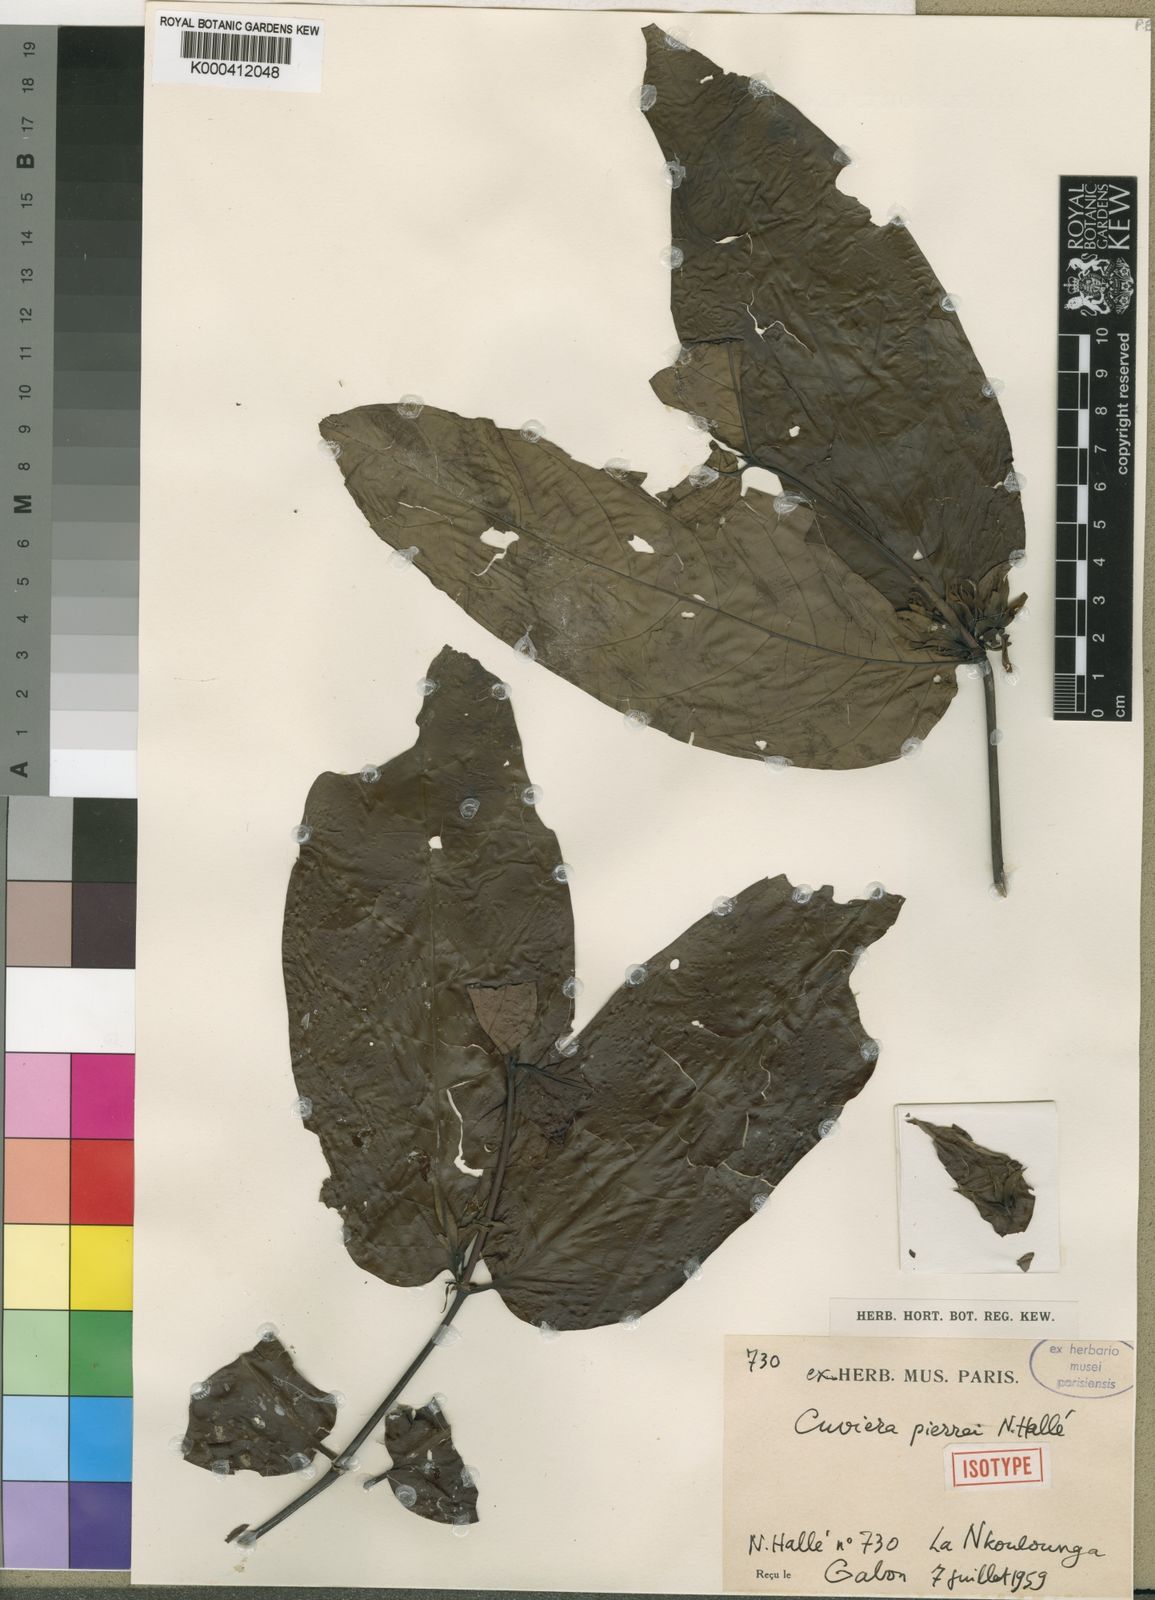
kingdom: Plantae
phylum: Tracheophyta
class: Magnoliopsida
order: Gentianales
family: Rubiaceae
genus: Cuviera
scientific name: Cuviera
